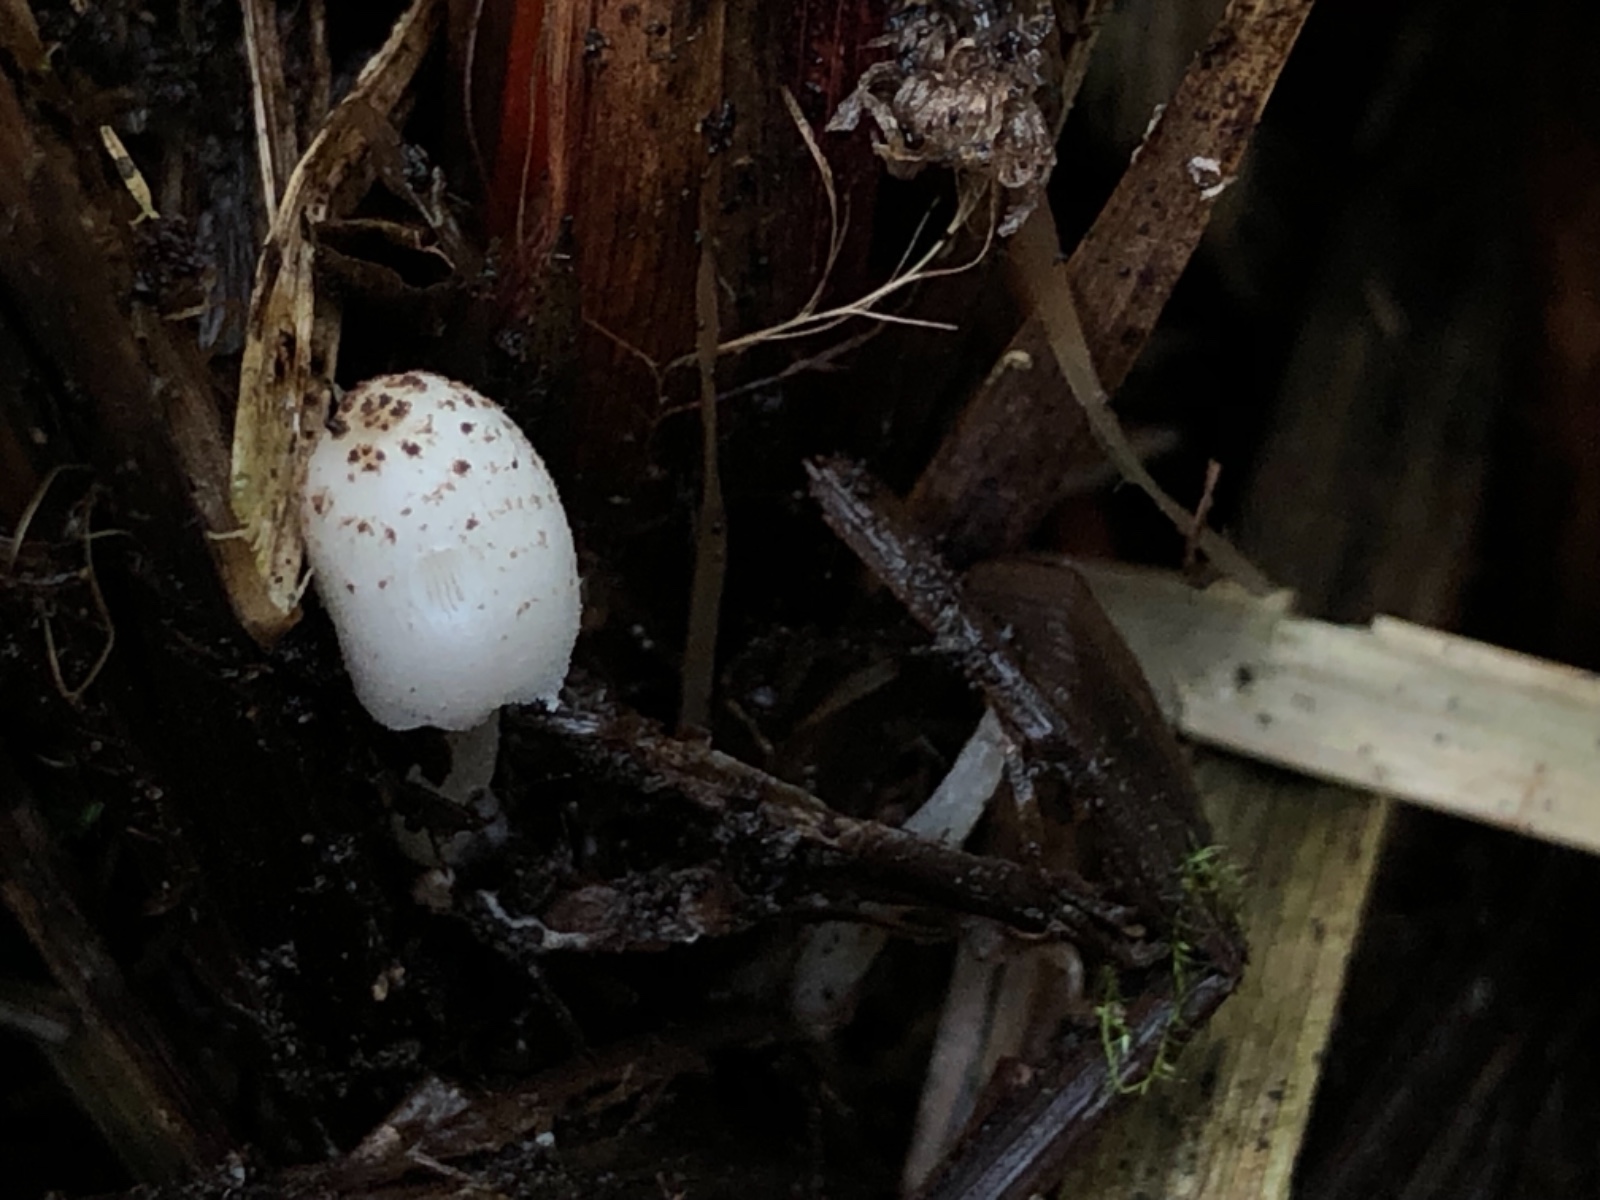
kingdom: Fungi
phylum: Basidiomycota
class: Agaricomycetes
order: Agaricales
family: Psathyrellaceae
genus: Coprinopsis
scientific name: Coprinopsis tigrinella
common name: brunfnugget blækhat
